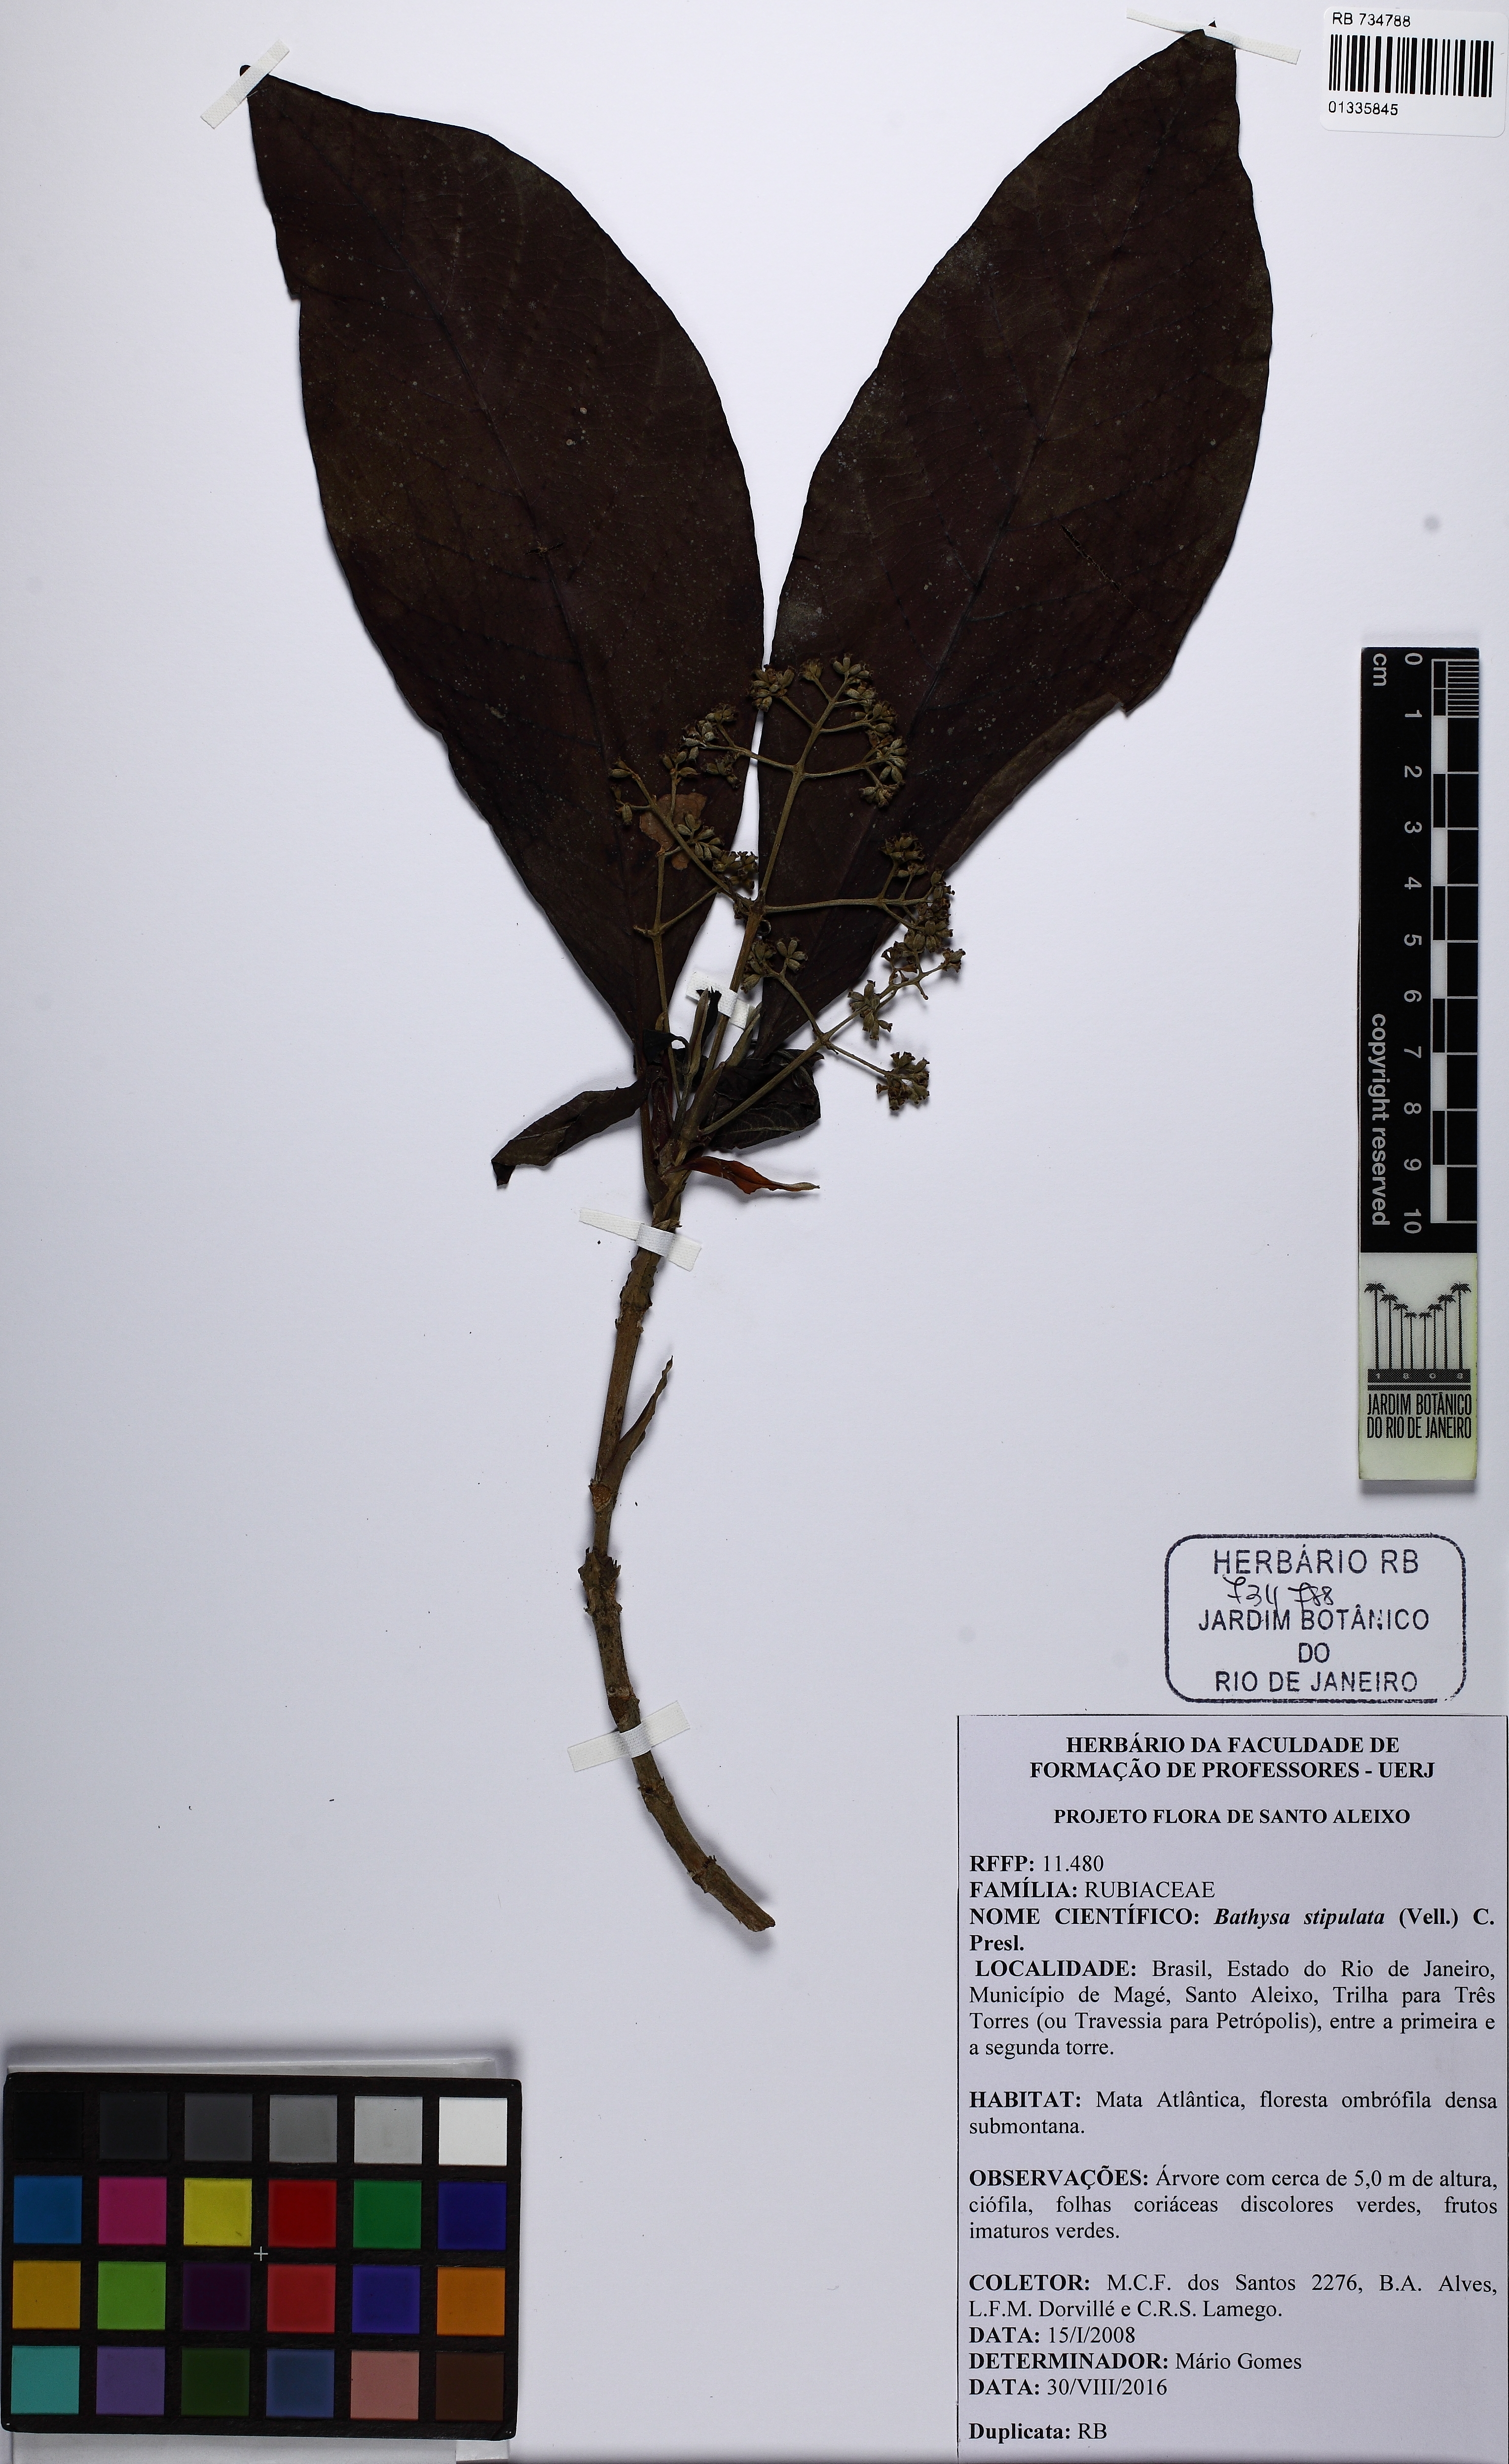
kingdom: Plantae
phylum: Tracheophyta
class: Magnoliopsida
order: Gentianales
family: Rubiaceae
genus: Bathysa
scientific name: Bathysa stipulata
